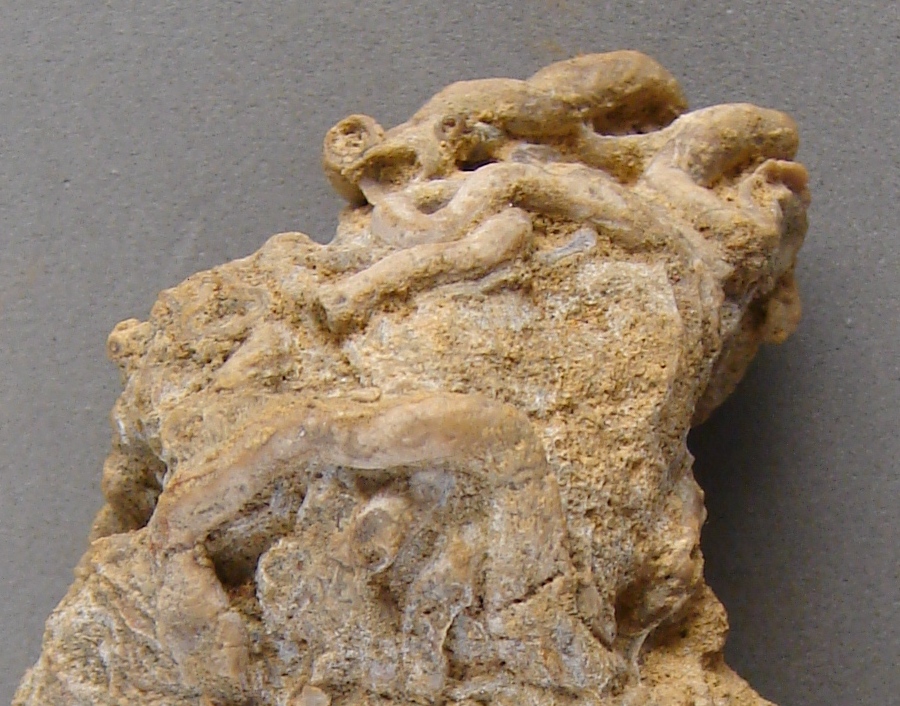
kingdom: Animalia
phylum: Annelida
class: Polychaeta
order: Sabellida
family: Sabellidae
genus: Glomerula
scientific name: Glomerula Serpula gordialis
